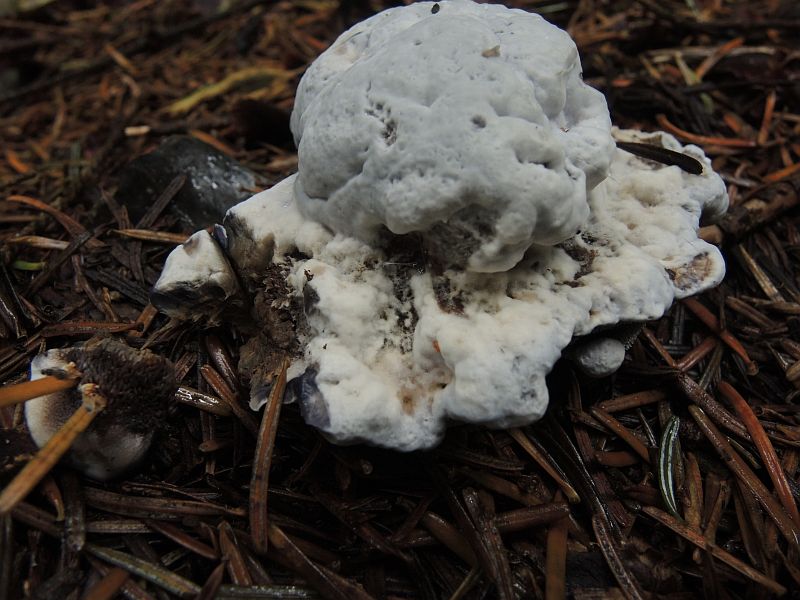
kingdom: Fungi
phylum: Basidiomycota
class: Agaricomycetes
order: Thelephorales
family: Bankeraceae
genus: Hydnellum
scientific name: Hydnellum caeruleum
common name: blålig korkpigsvamp
